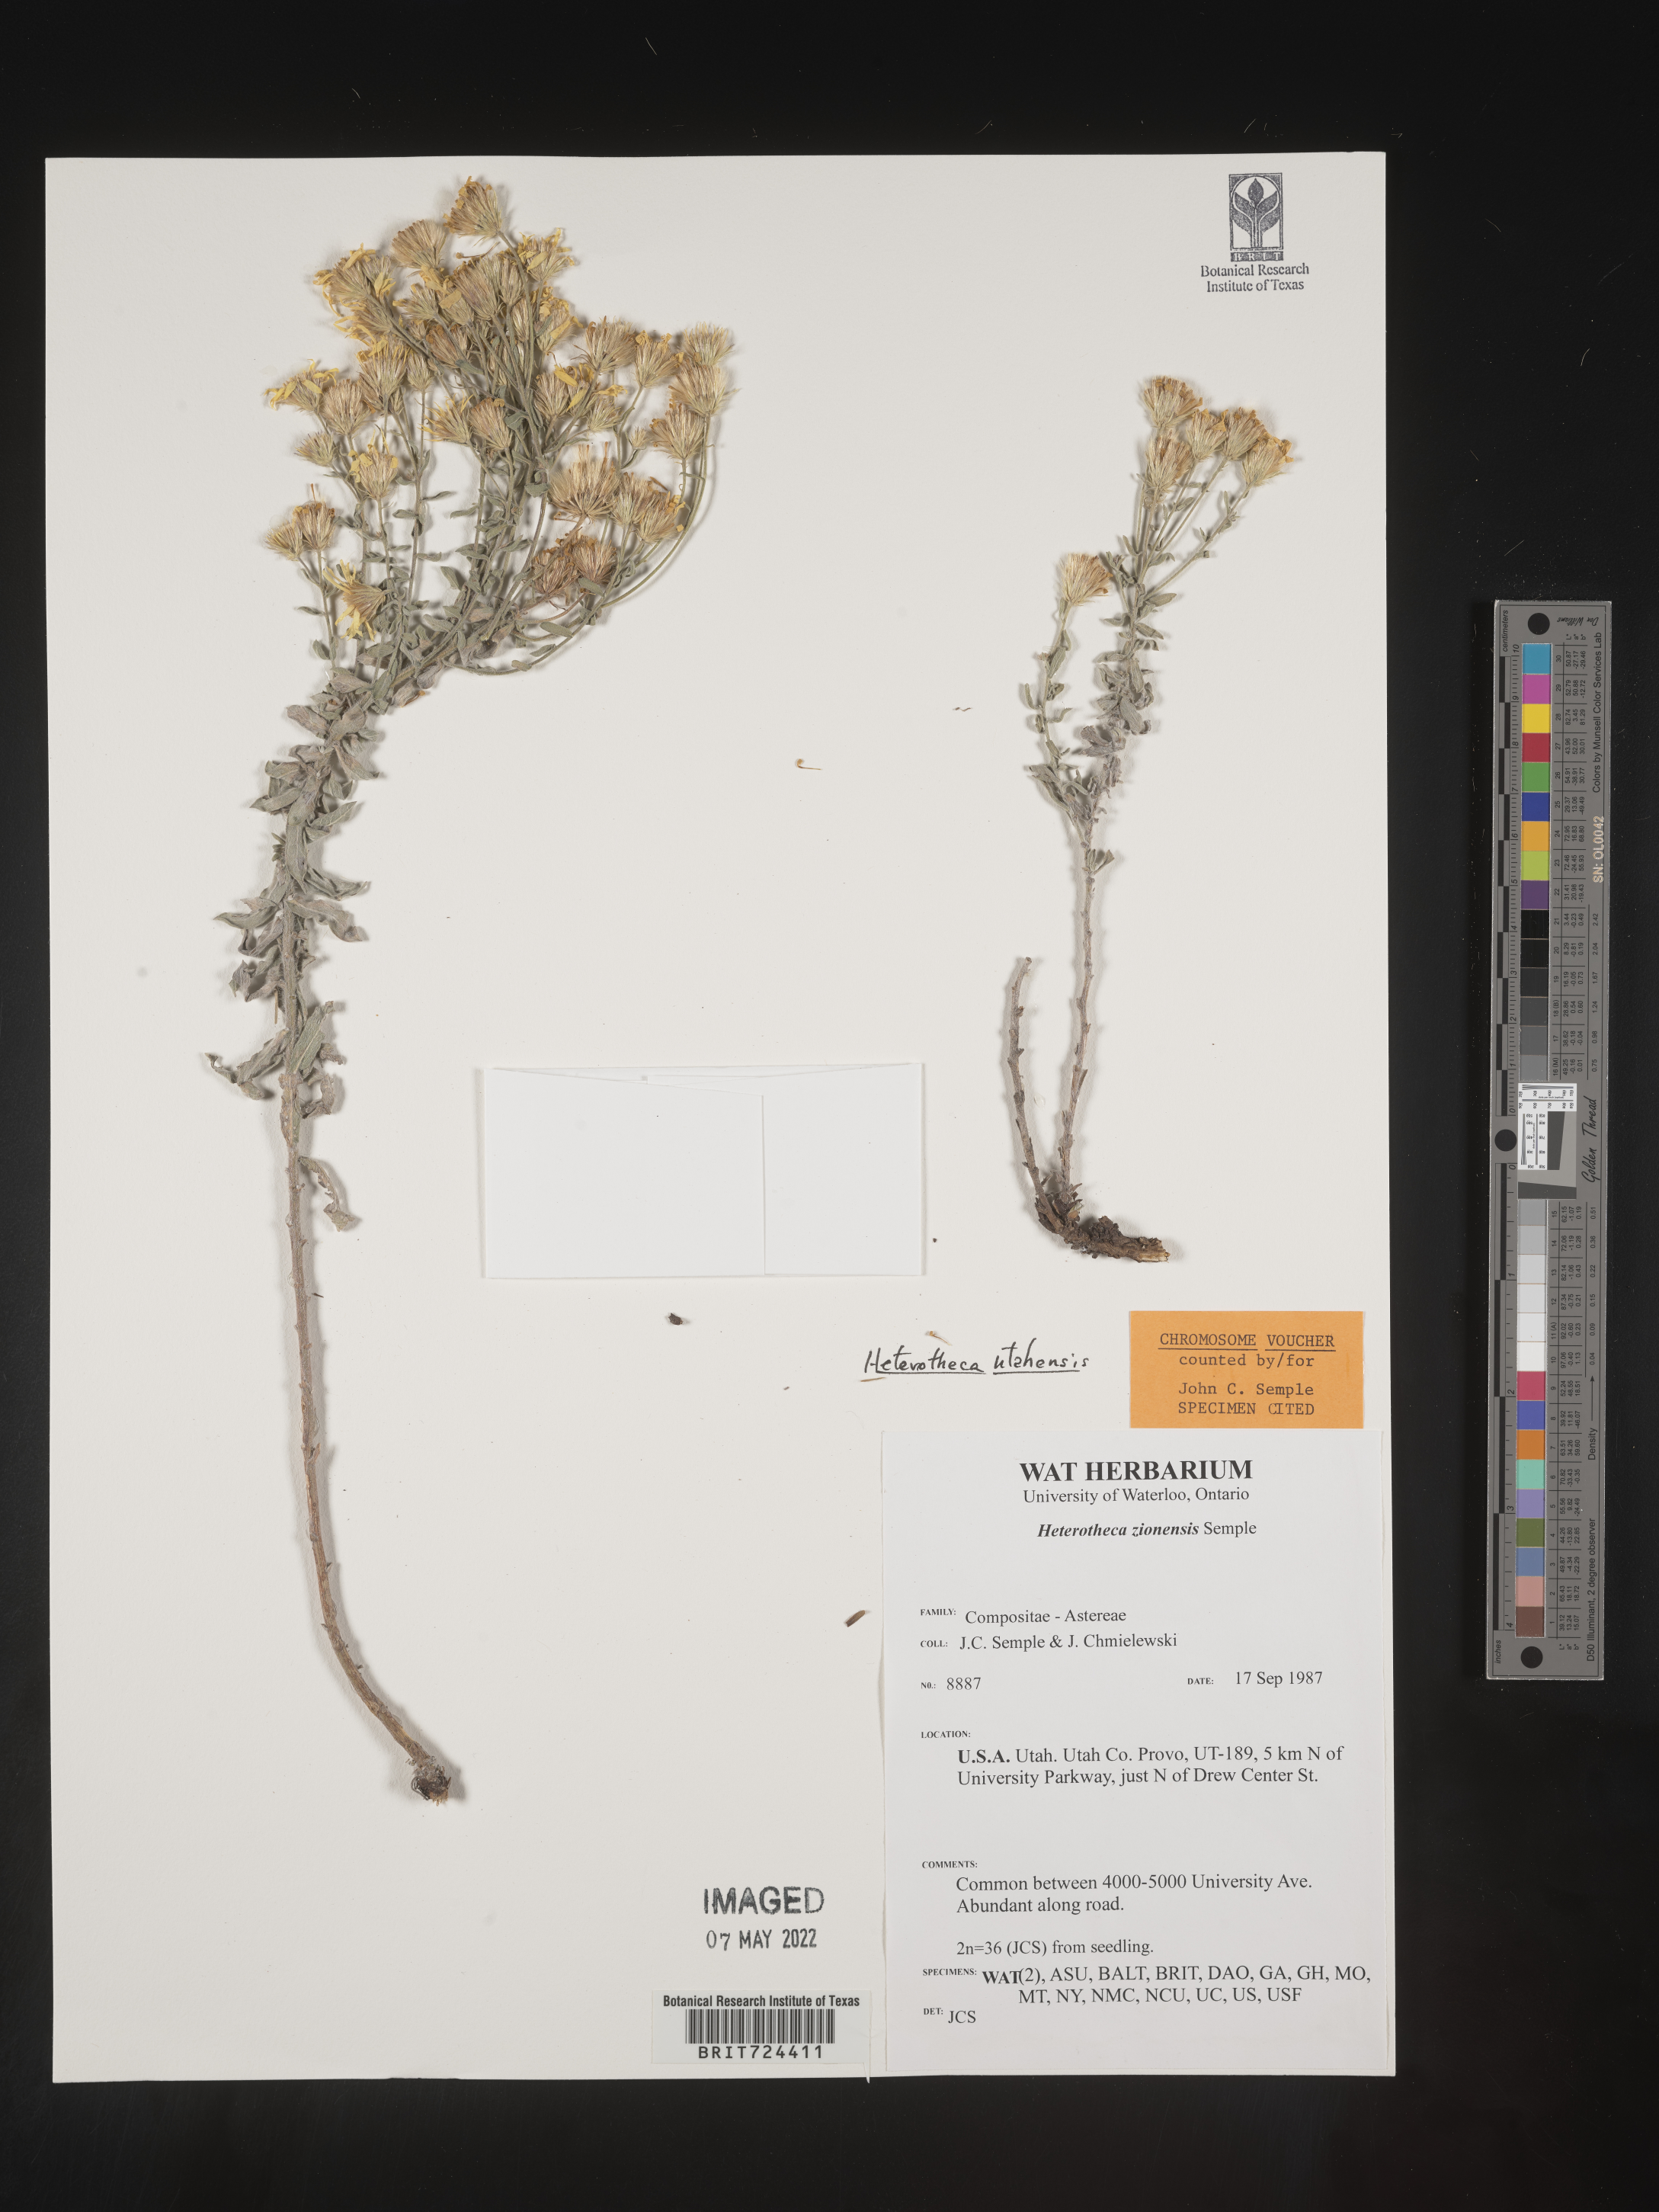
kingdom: Plantae
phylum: Tracheophyta
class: Magnoliopsida
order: Asterales
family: Asteraceae
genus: Heterotheca
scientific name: Heterotheca utahensis
